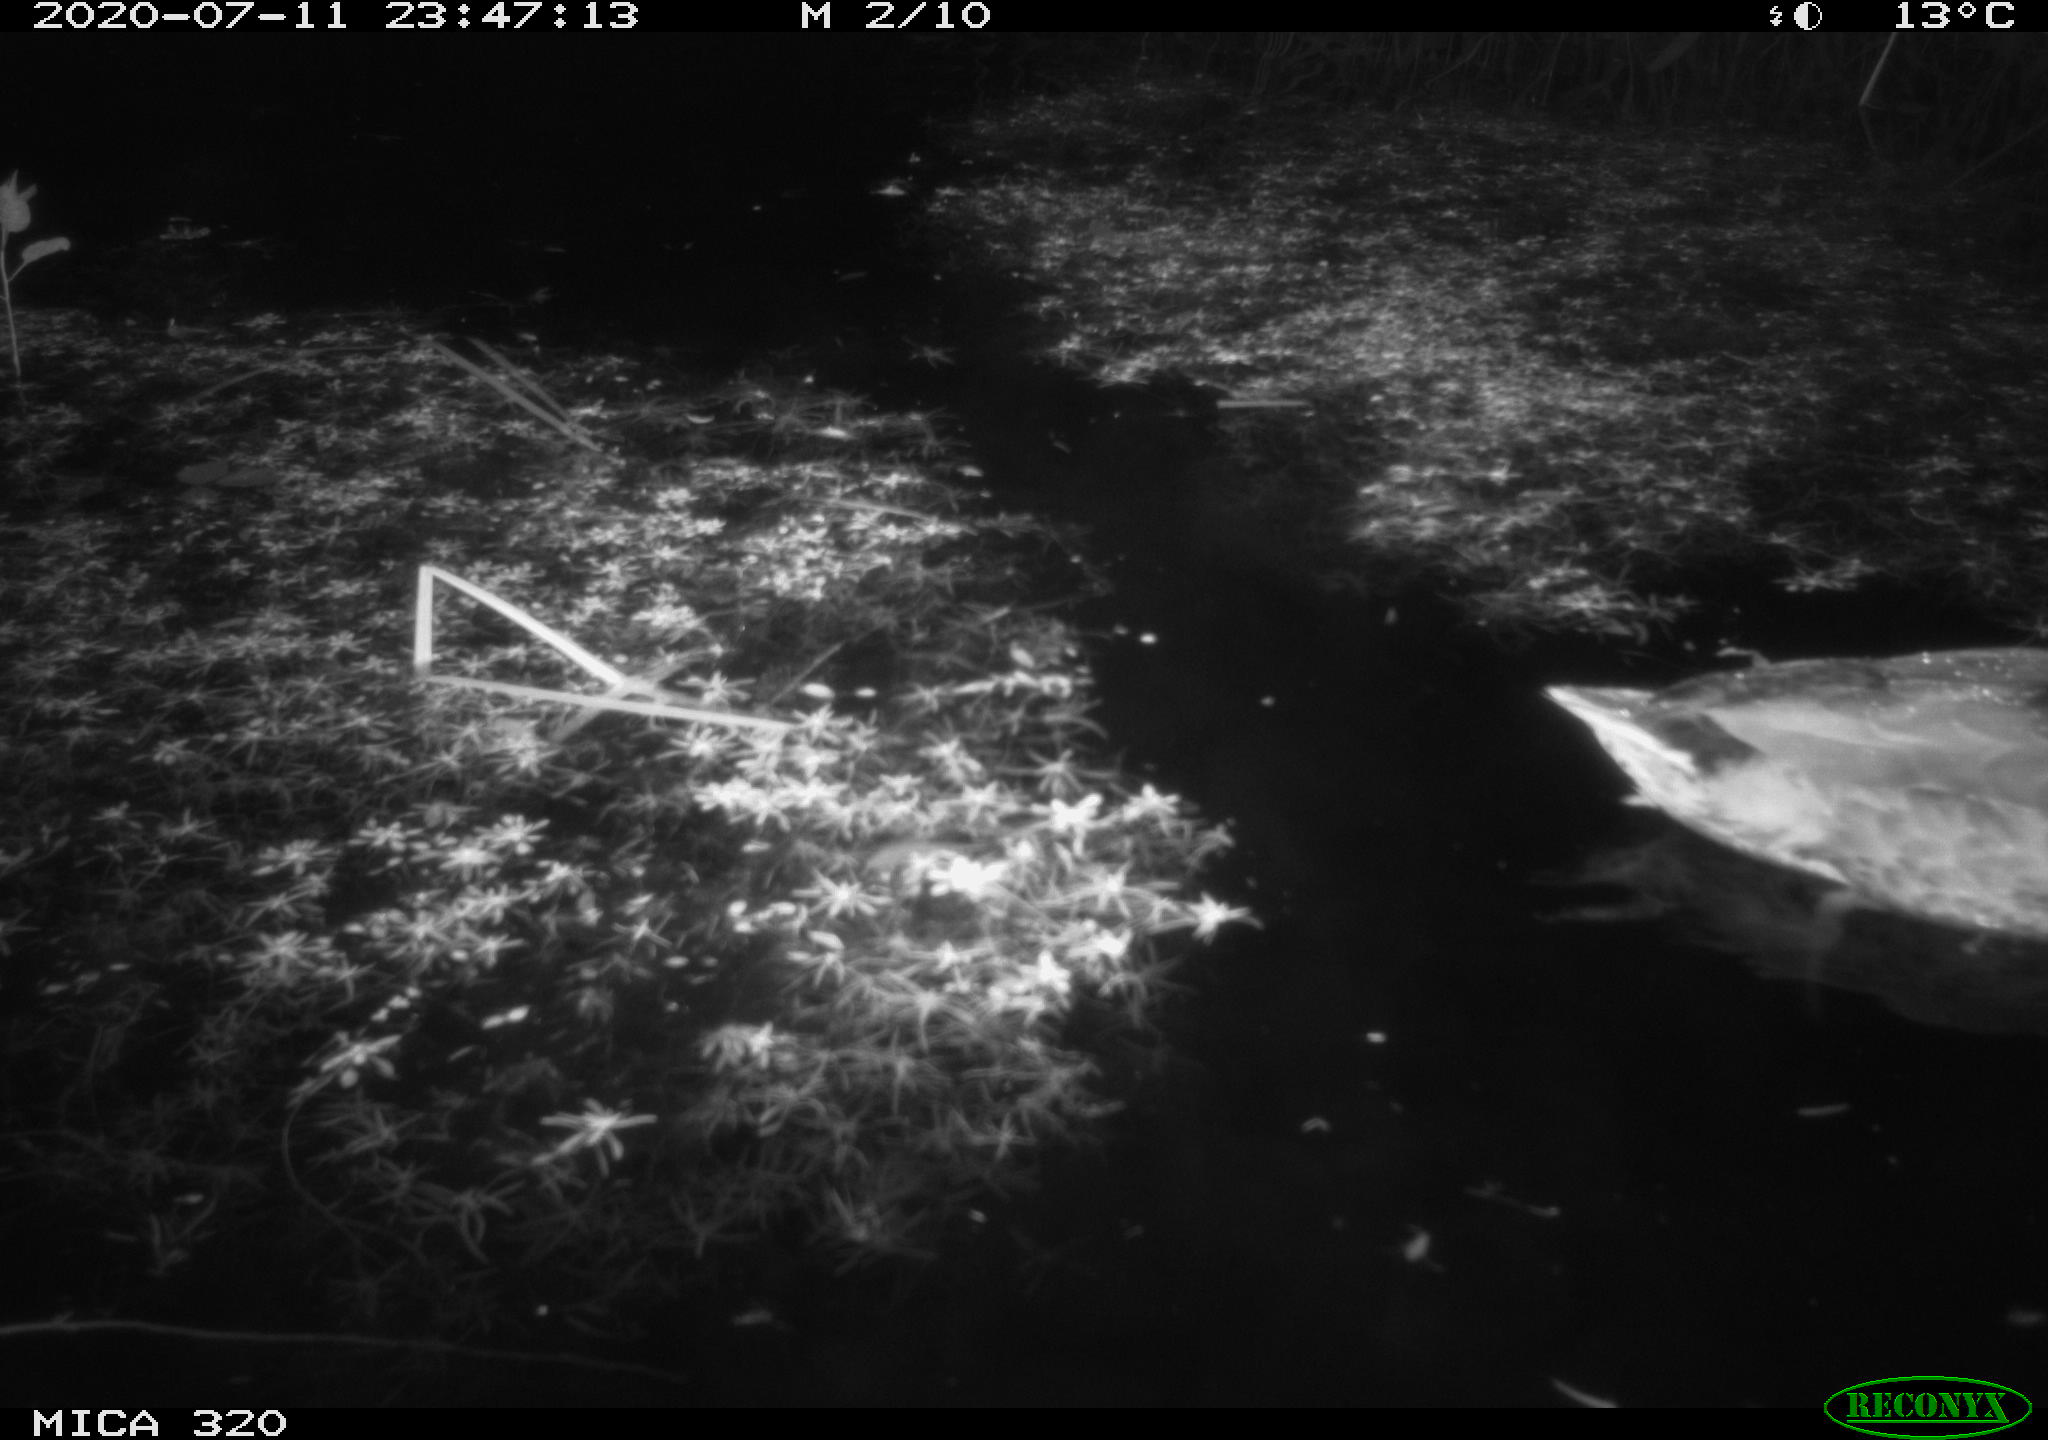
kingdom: Animalia
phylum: Chordata
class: Aves
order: Anseriformes
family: Anatidae
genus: Anas
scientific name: Anas platyrhynchos
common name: Mallard
